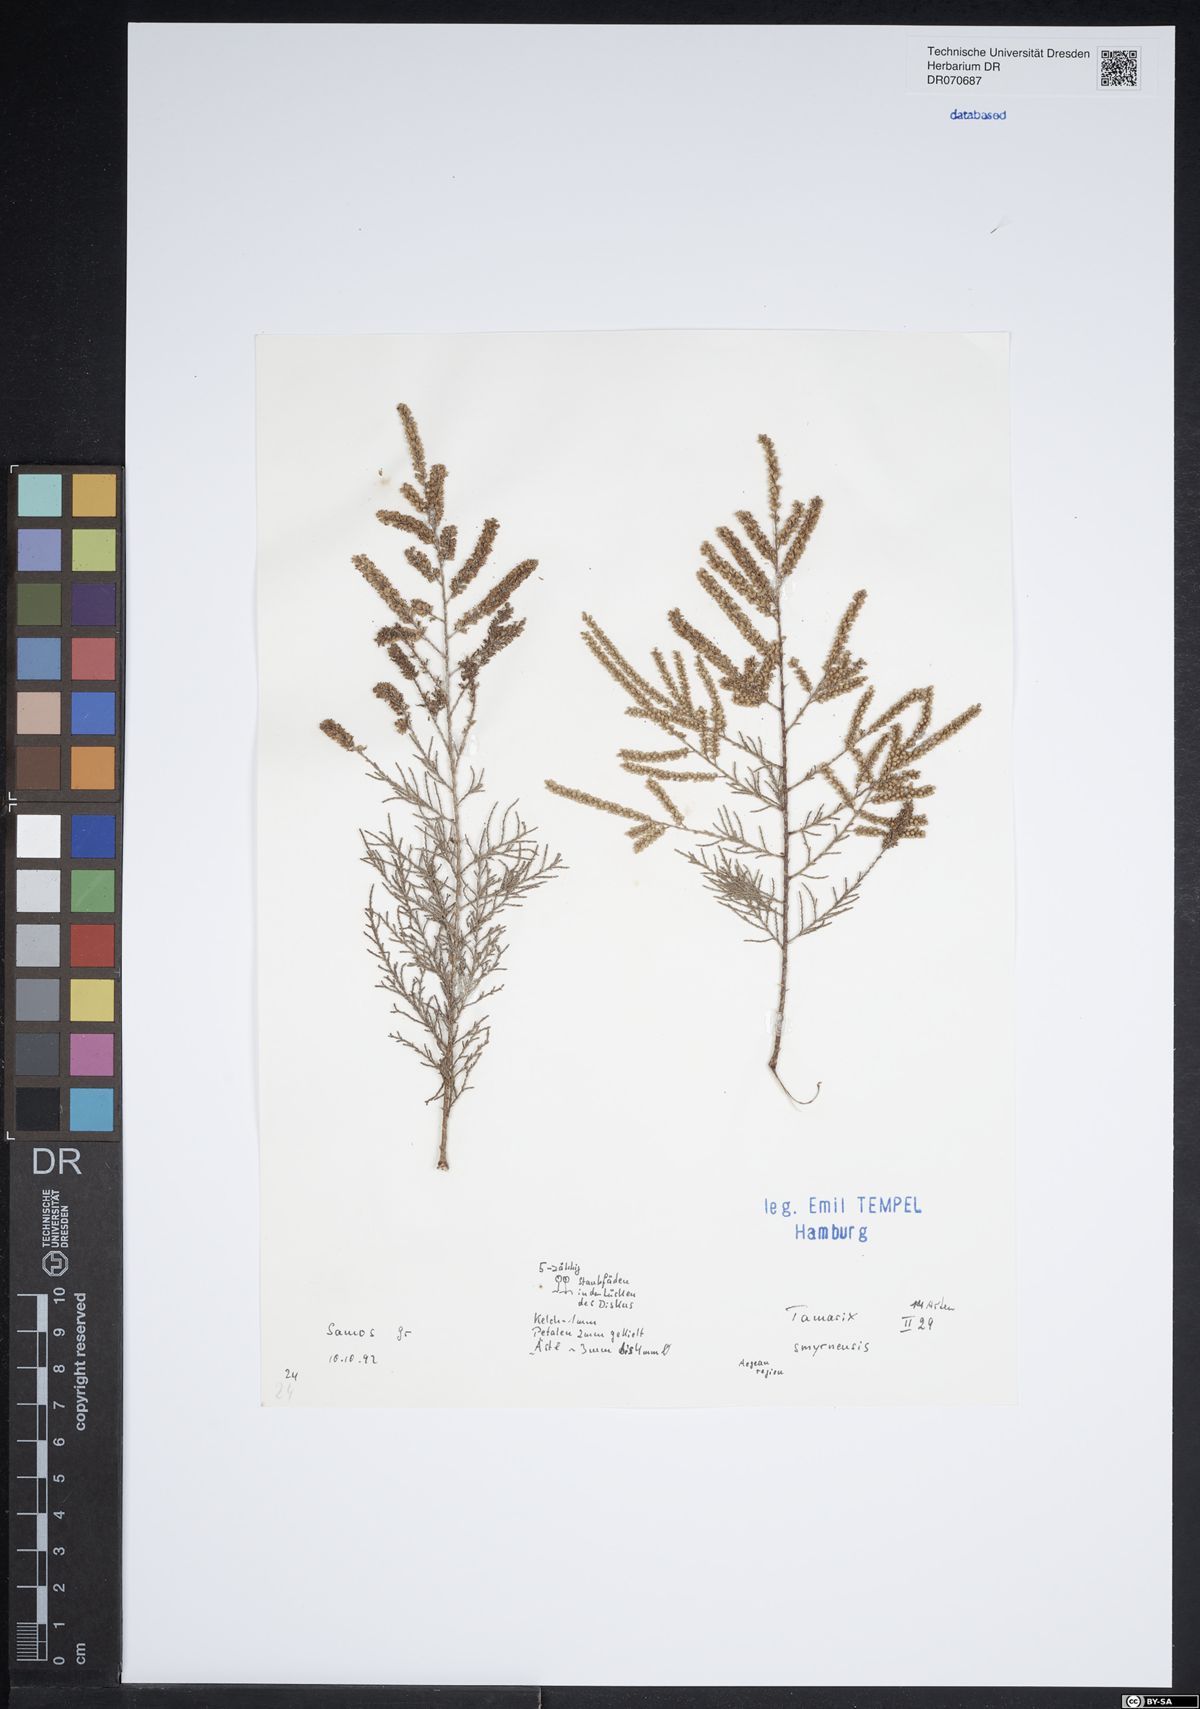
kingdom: Plantae
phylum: Tracheophyta
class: Magnoliopsida
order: Caryophyllales
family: Tamaricaceae
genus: Tamarix
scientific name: Tamarix smyrnensis
